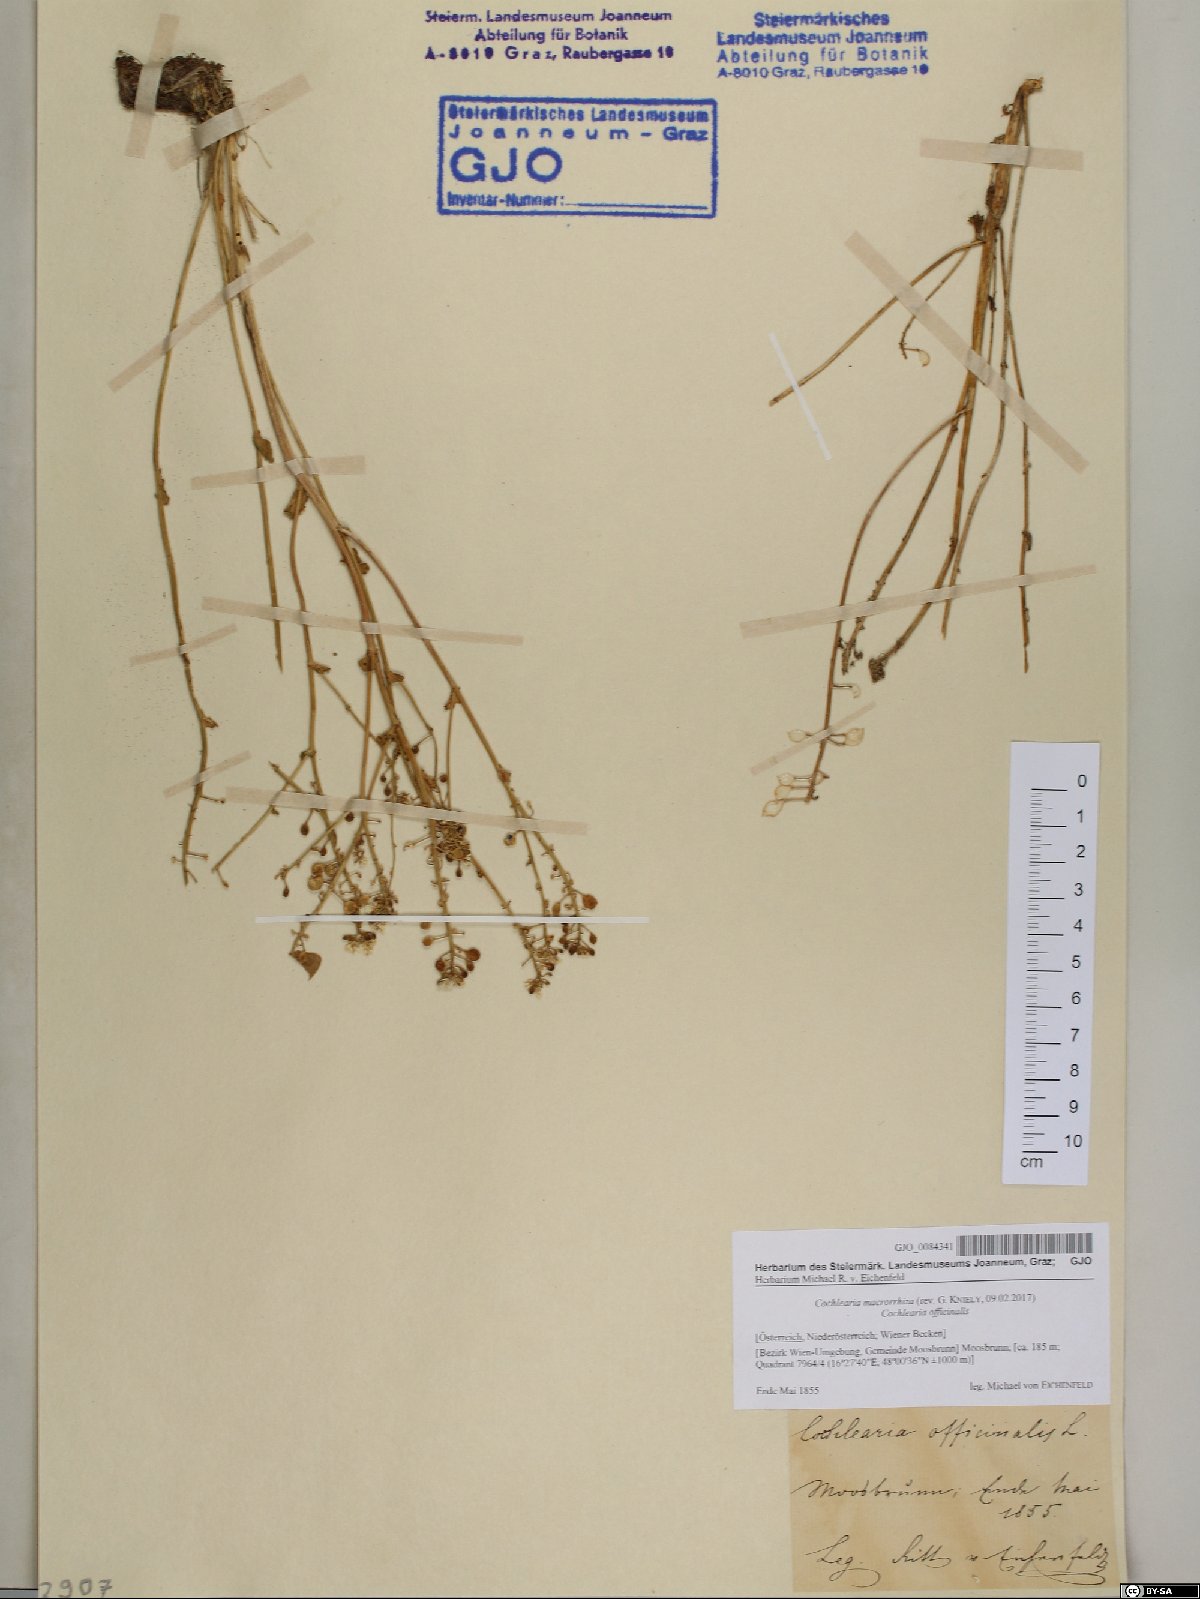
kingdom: Plantae
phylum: Tracheophyta
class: Magnoliopsida
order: Brassicales
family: Brassicaceae
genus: Cochlearia
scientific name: Cochlearia pyrenaica
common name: Upland scurvy-grass
